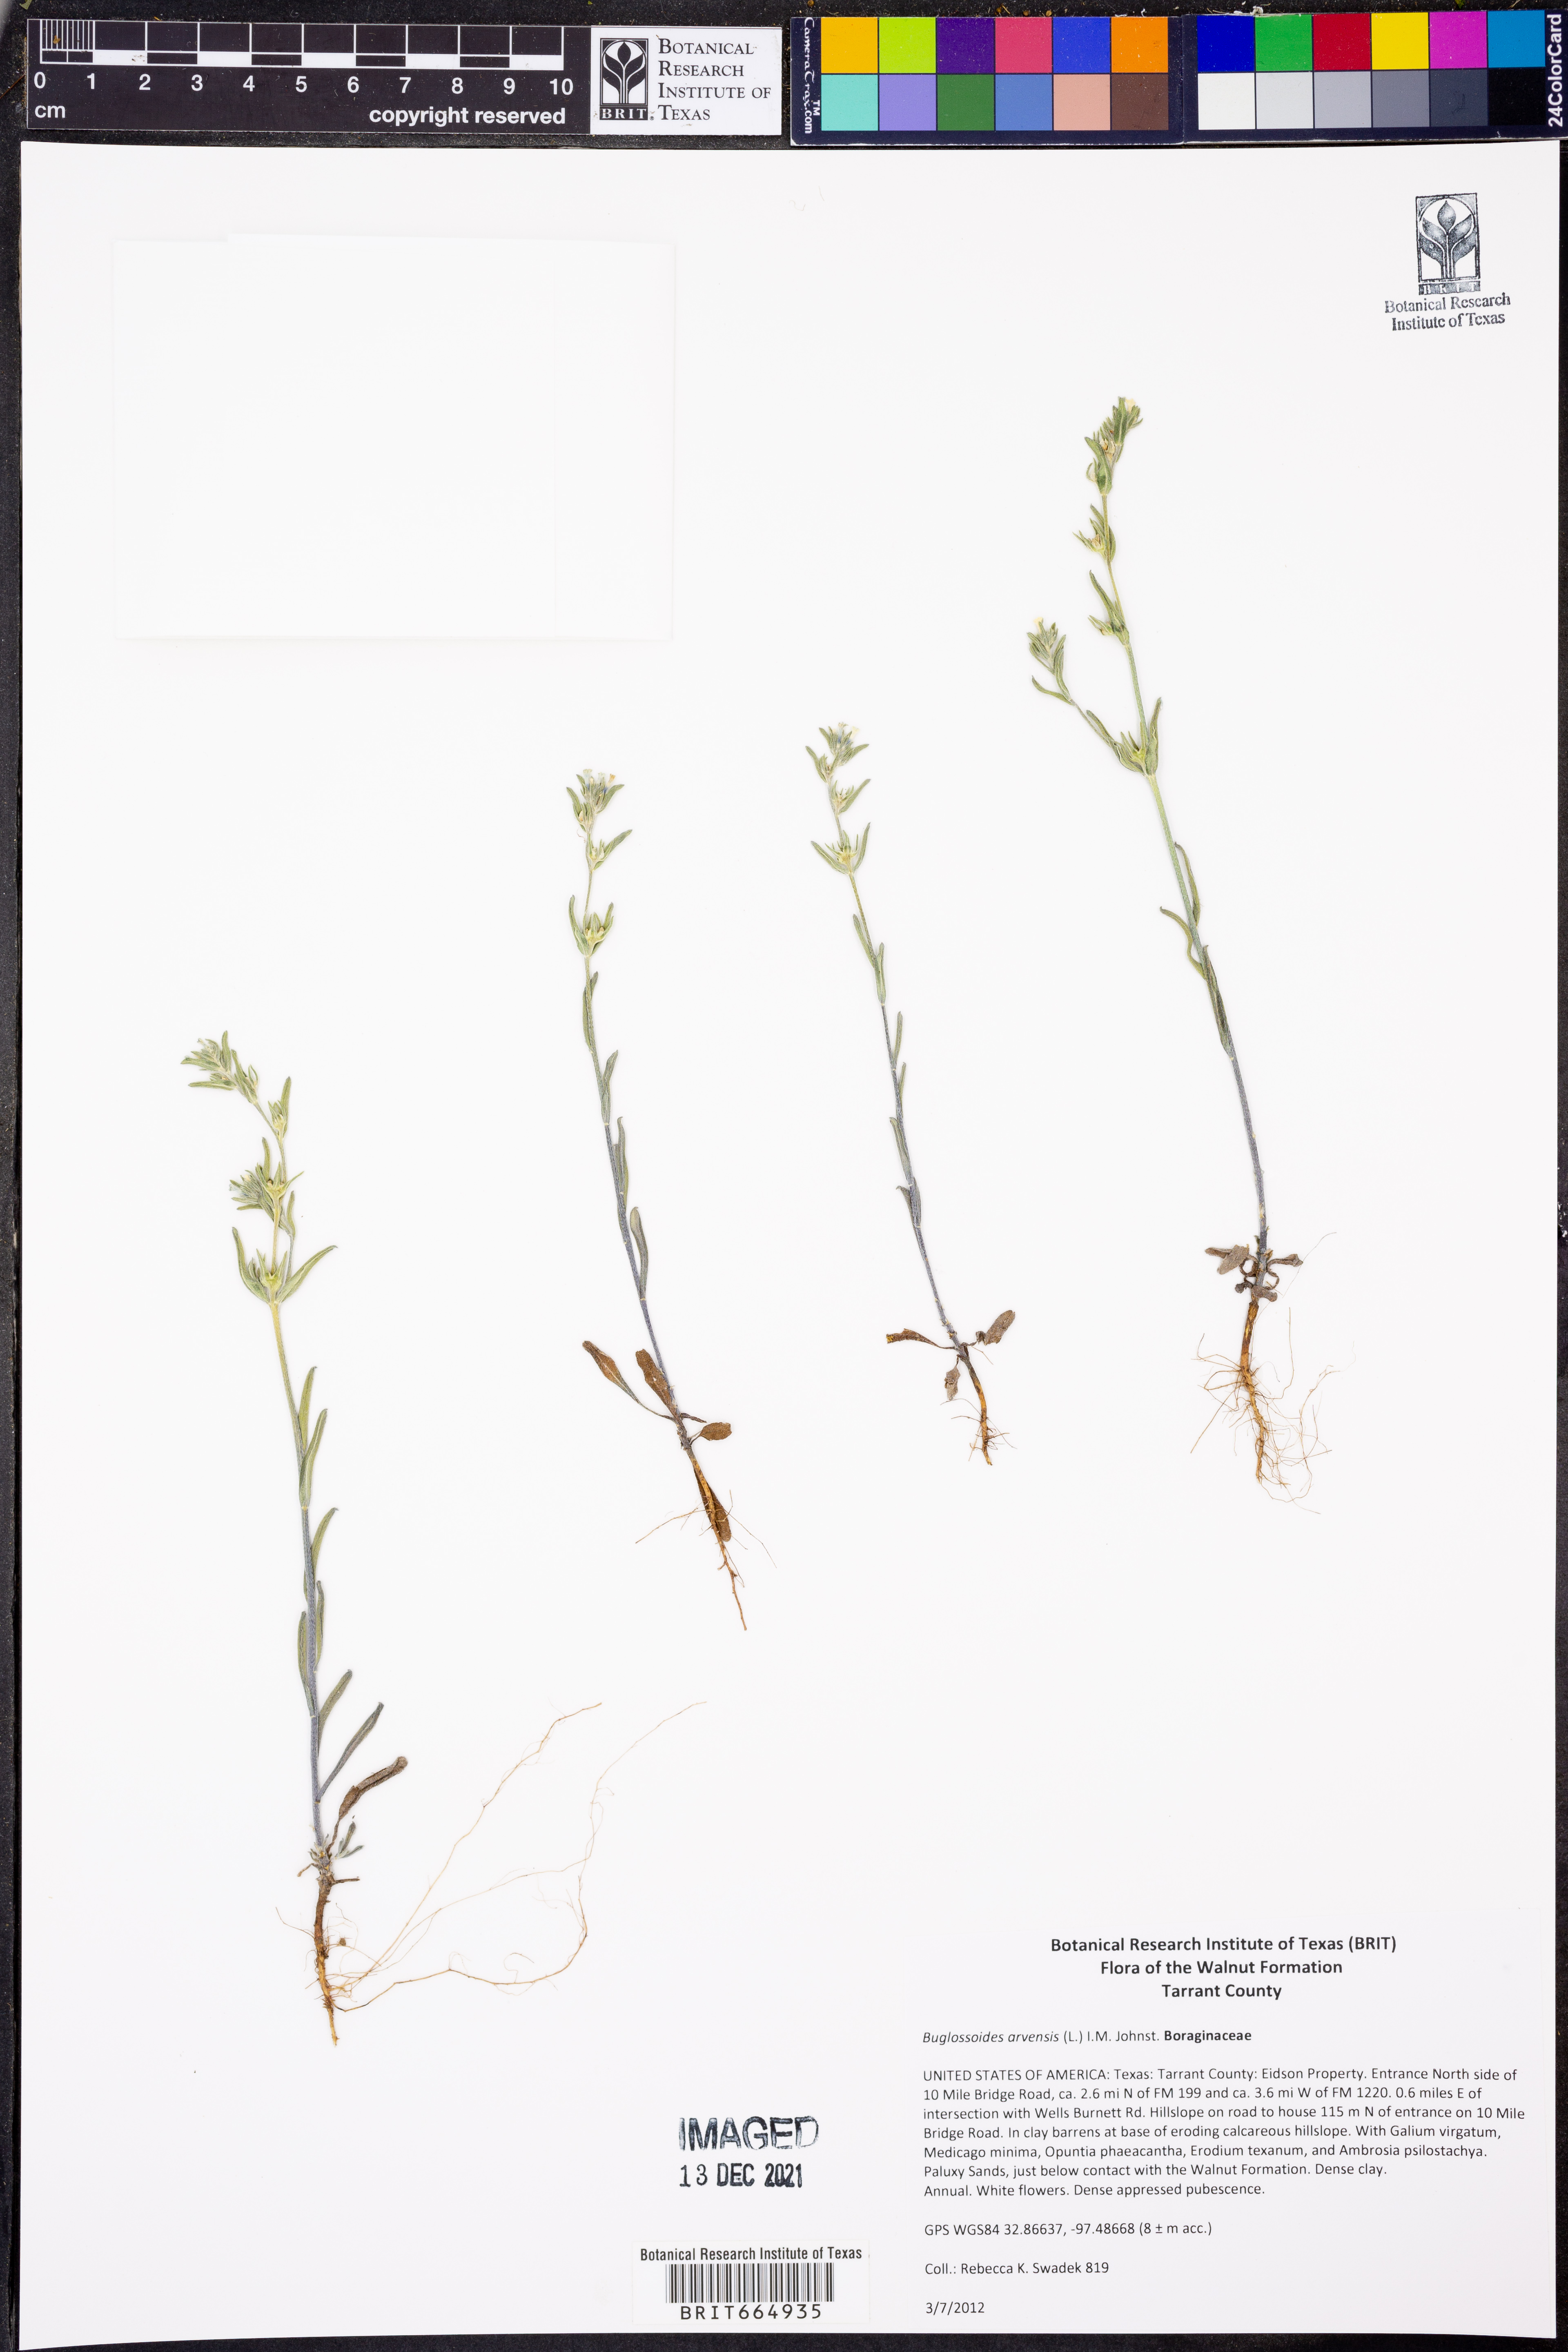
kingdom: Plantae
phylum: Tracheophyta
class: Magnoliopsida
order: Boraginales
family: Boraginaceae
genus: Buglossoides
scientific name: Buglossoides arvensis
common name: Corn gromwell
